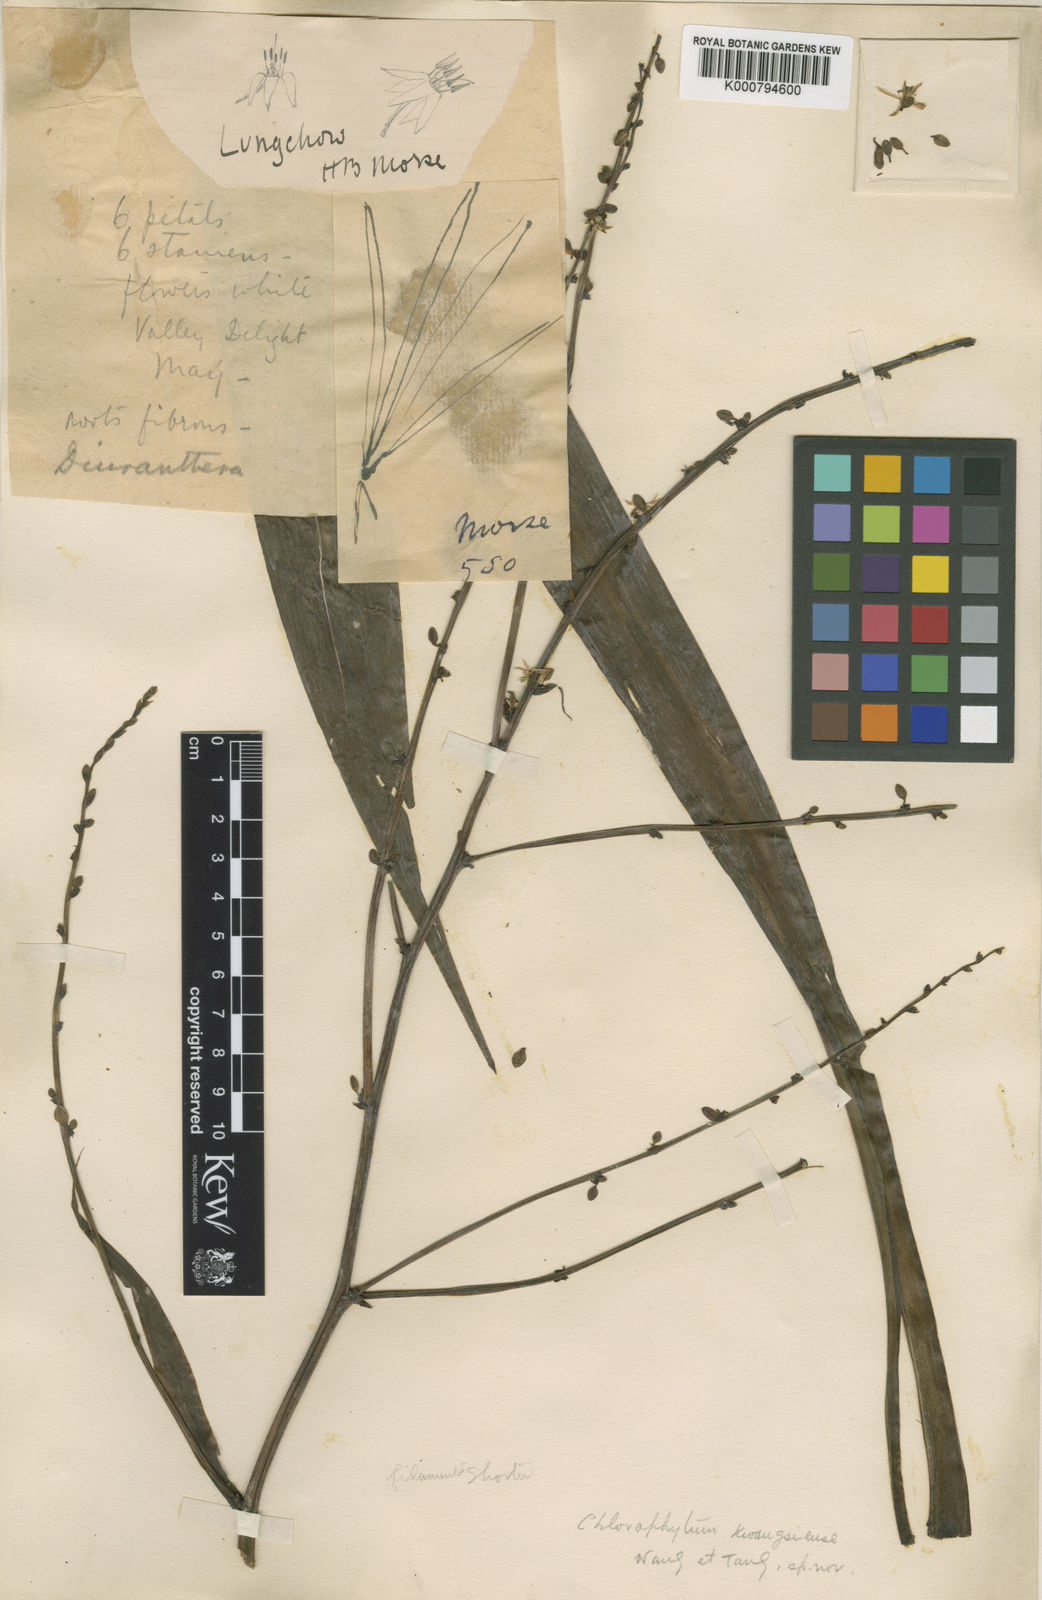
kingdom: Plantae
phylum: Tracheophyta
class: Liliopsida
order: Asparagales
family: Asparagaceae
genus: Chlorophytum
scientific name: Chlorophytum
